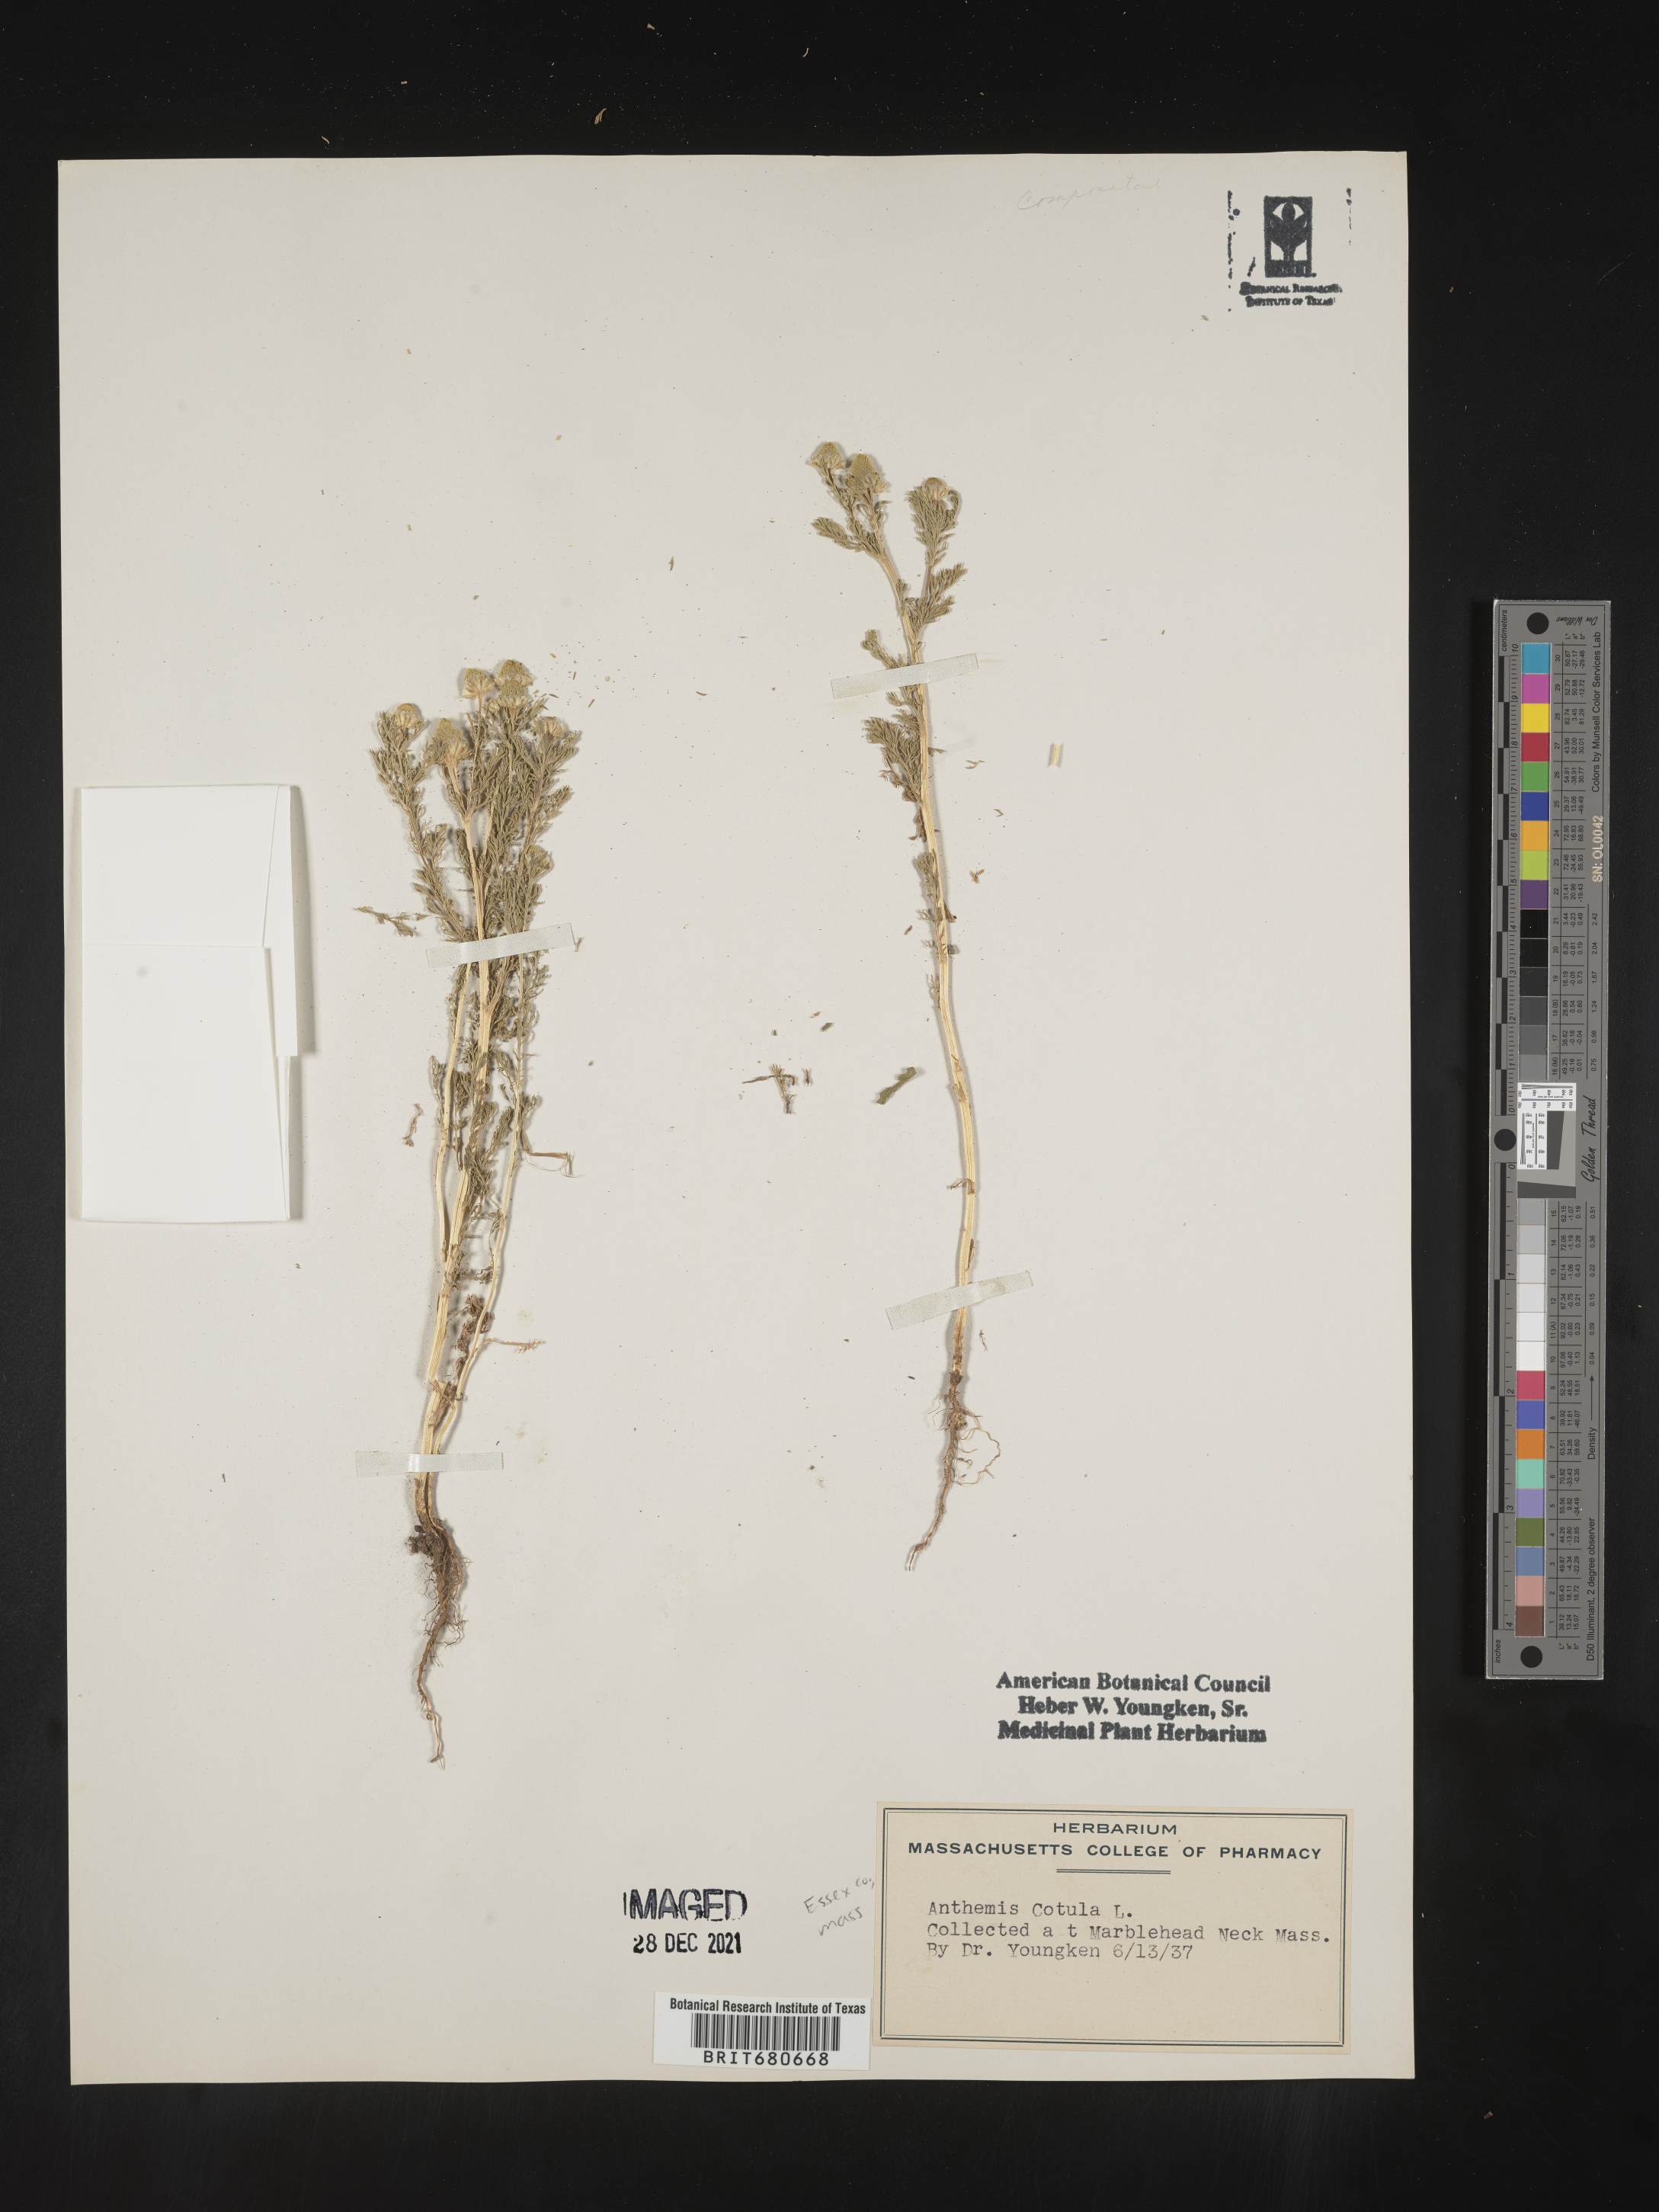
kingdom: Plantae
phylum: Tracheophyta
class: Magnoliopsida
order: Asterales
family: Asteraceae
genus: Anthemis
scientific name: Anthemis cotula
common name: Stinking chamomile
